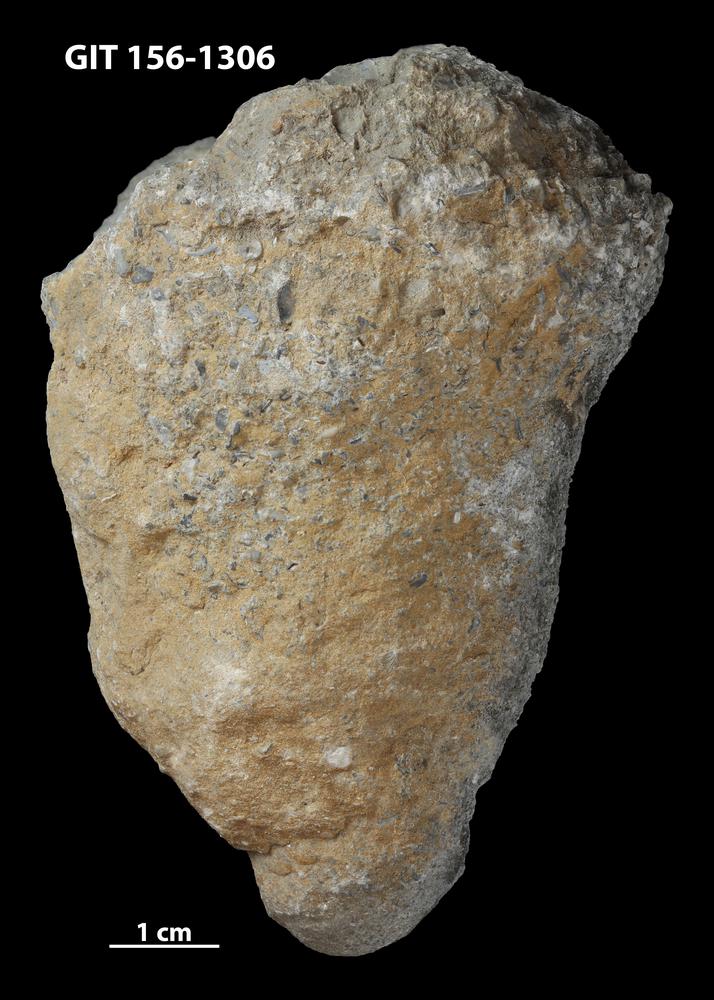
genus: Conichnus
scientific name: Conichnus
